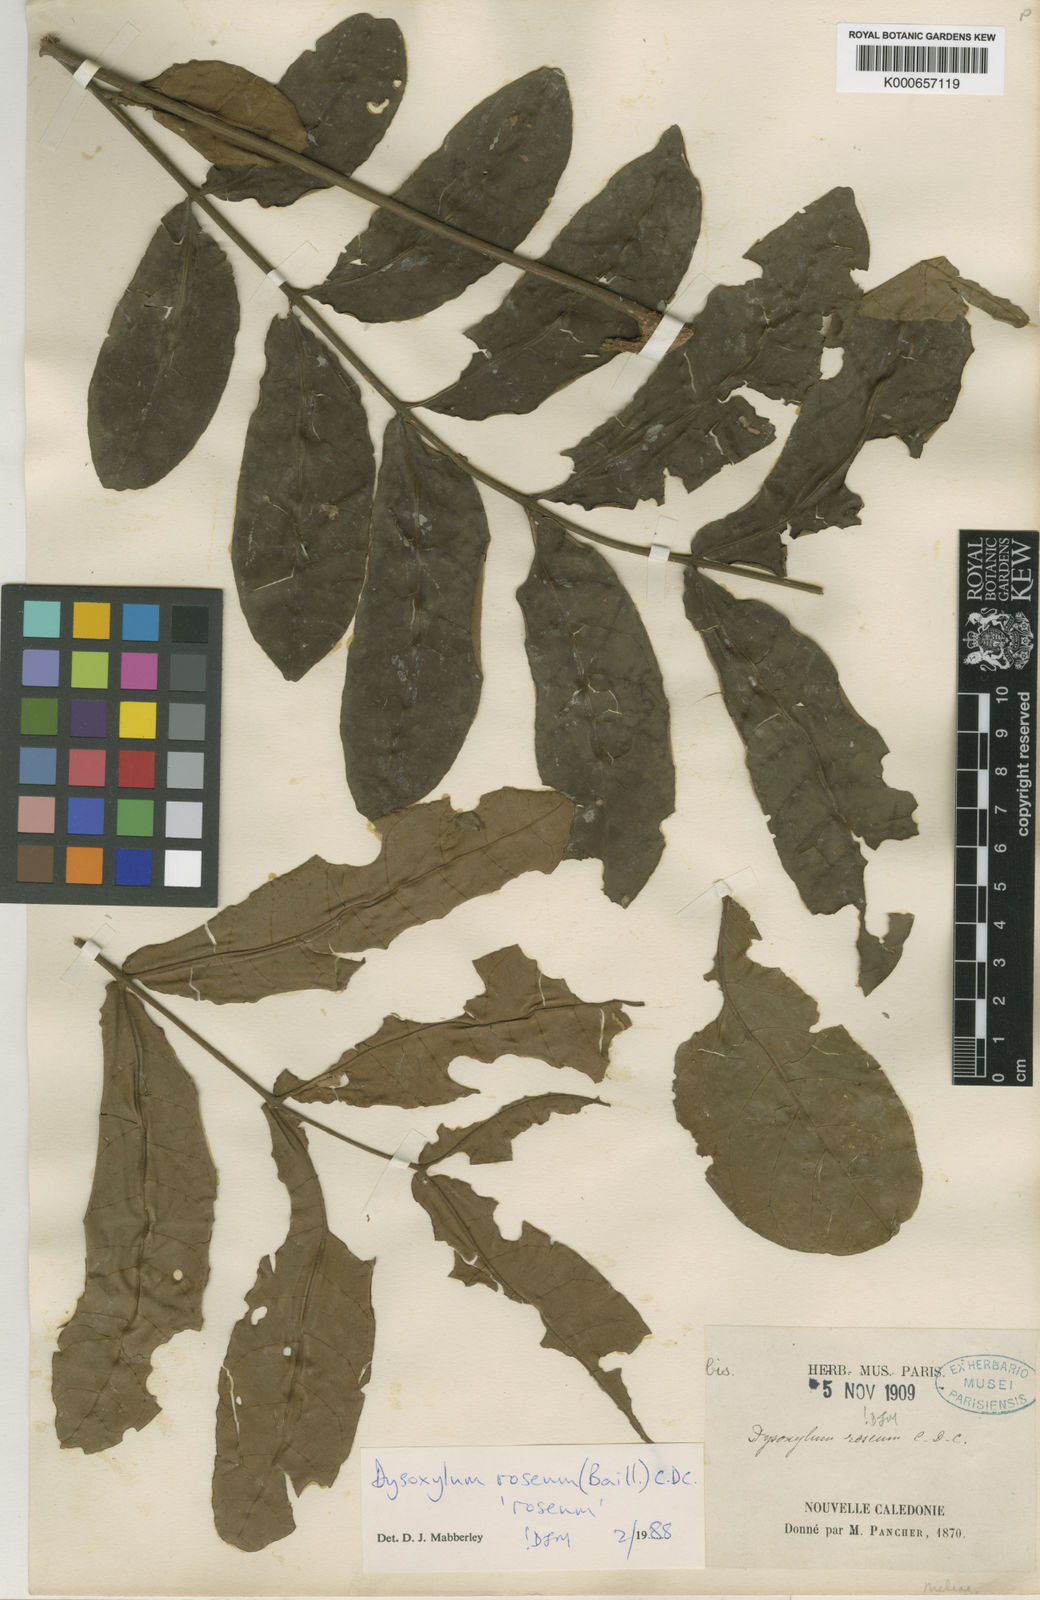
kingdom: Plantae
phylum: Tracheophyta
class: Magnoliopsida
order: Sapindales
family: Meliaceae
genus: Didymocheton
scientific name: Didymocheton roseus
